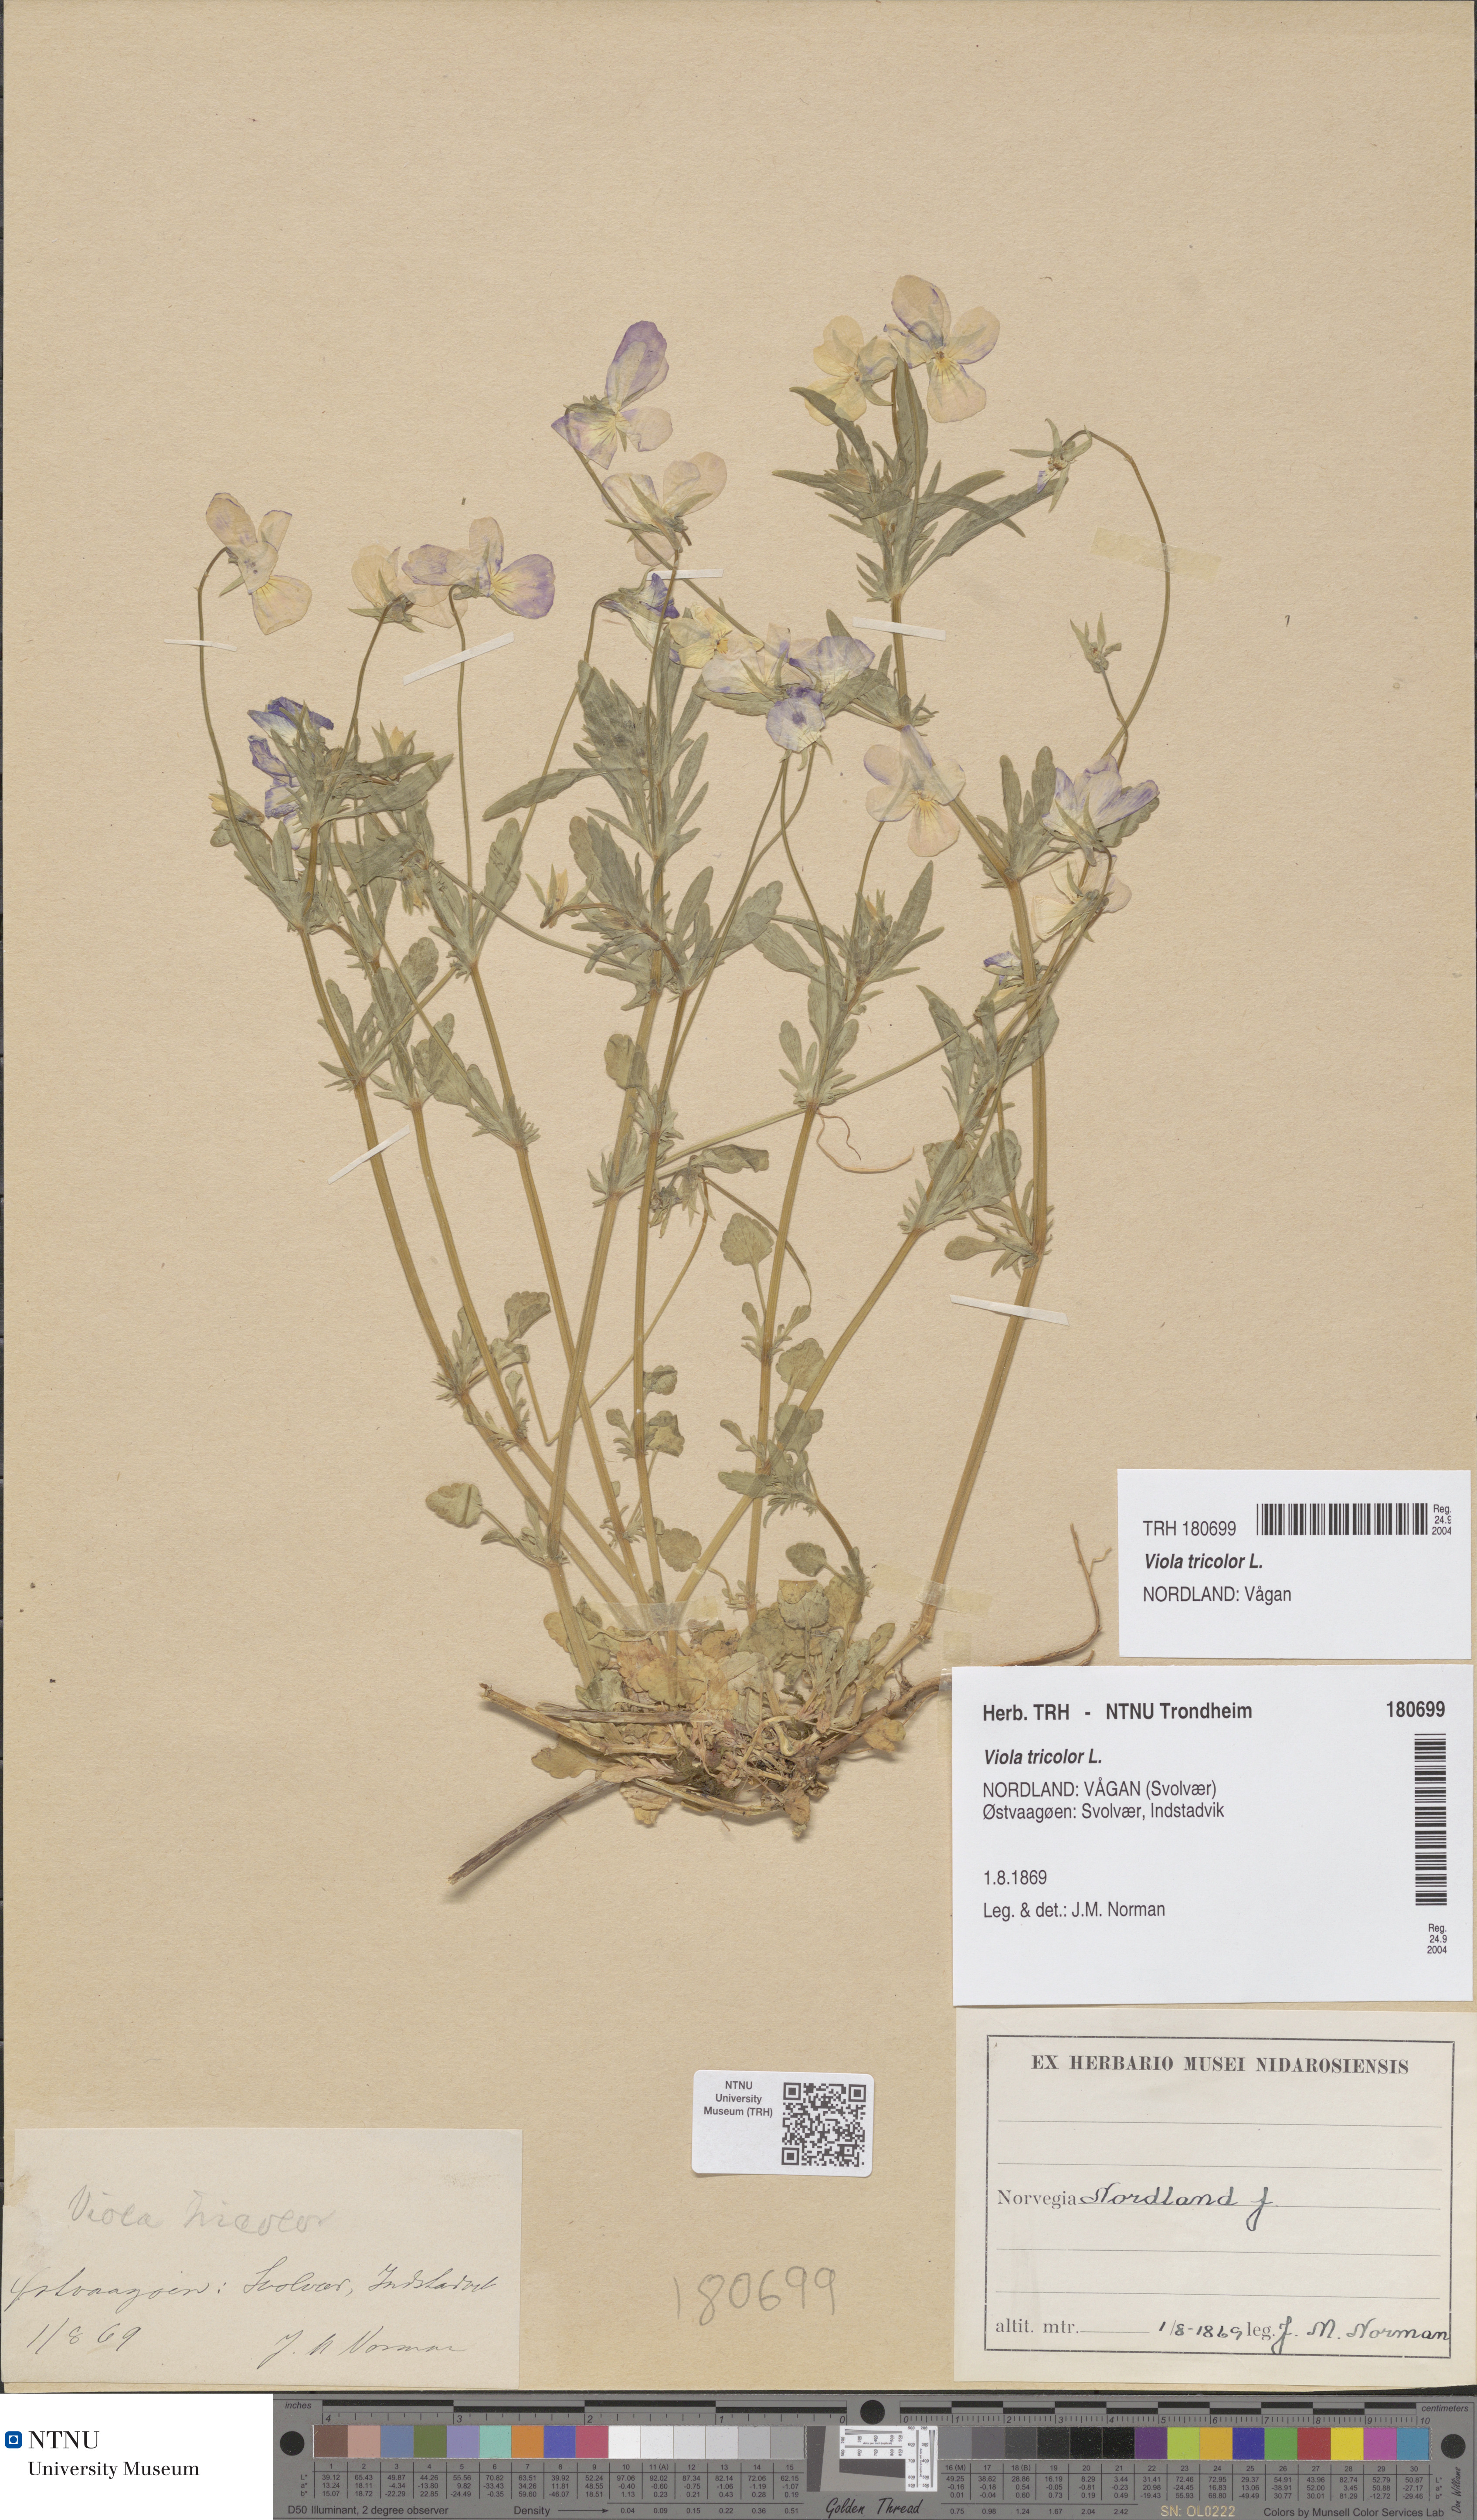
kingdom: Plantae
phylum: Tracheophyta
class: Magnoliopsida
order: Malpighiales
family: Violaceae
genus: Viola
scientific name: Viola tricolor
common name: Pansy
